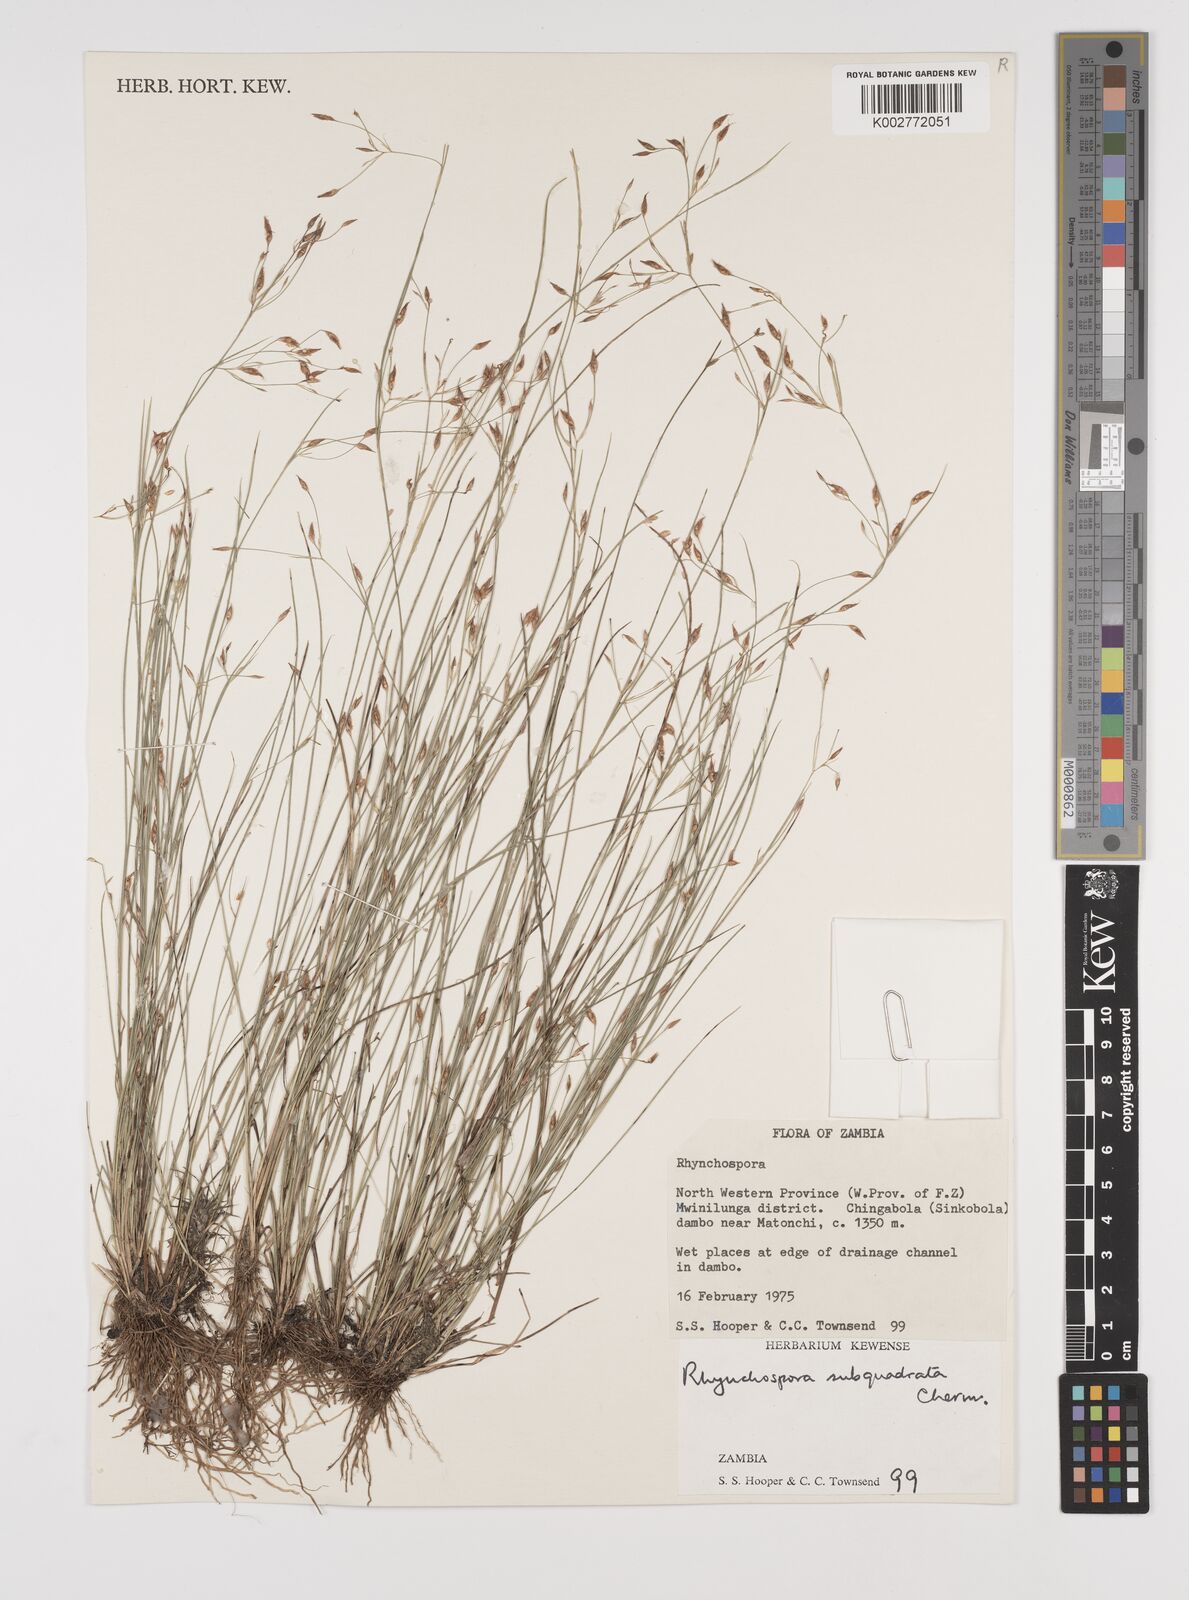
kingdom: Plantae
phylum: Tracheophyta
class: Liliopsida
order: Poales
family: Cyperaceae
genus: Rhynchospora
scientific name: Rhynchospora gracillima
